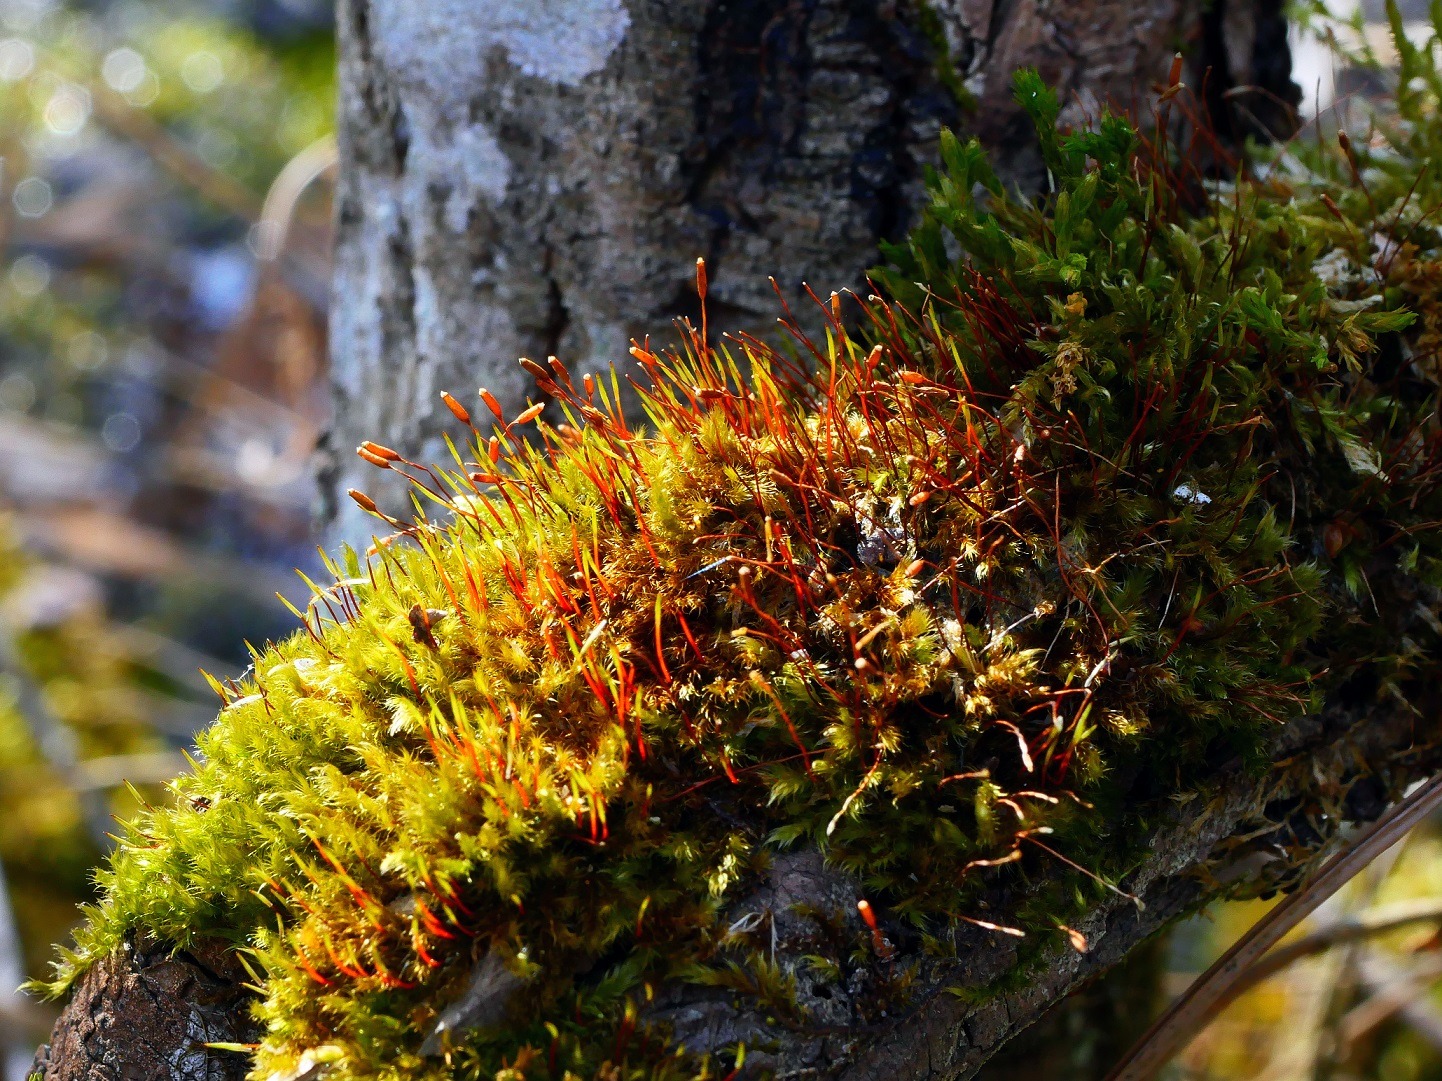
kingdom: Plantae
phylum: Bryophyta
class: Bryopsida
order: Hypnales
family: Pylaisiaceae
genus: Pylaisia
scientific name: Pylaisia polyantha
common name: Mangefrugtet aspemos
